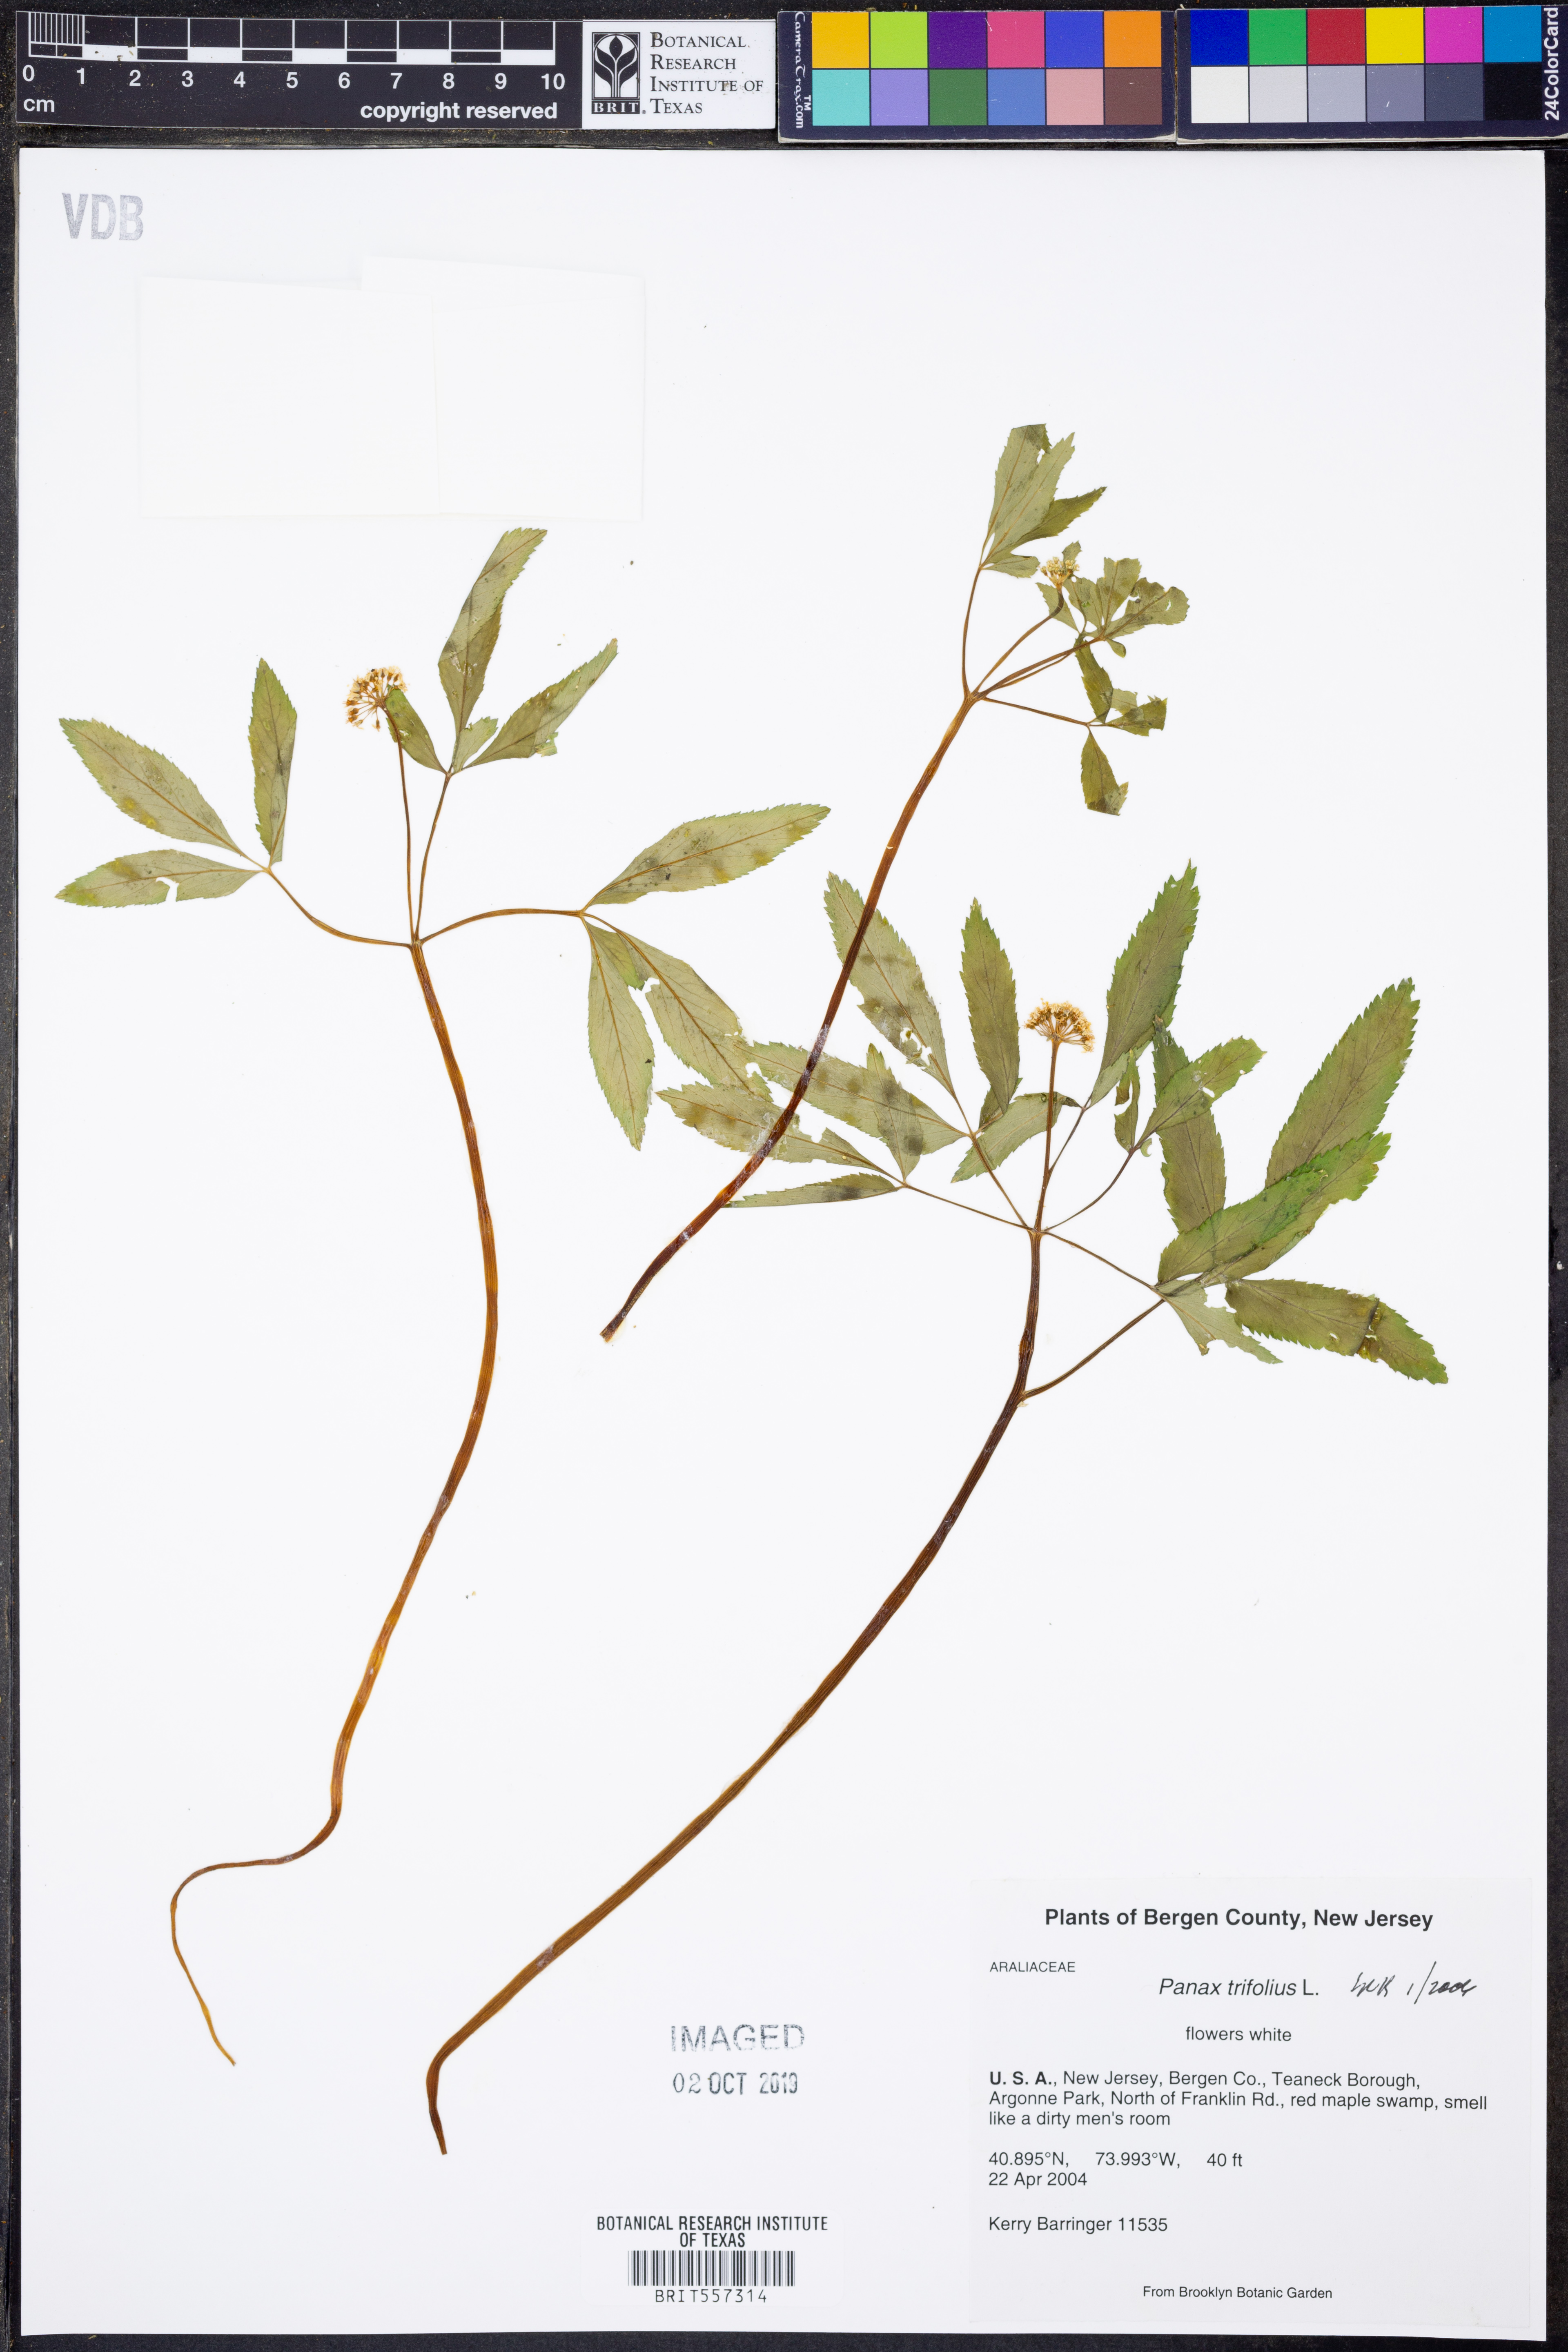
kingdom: Plantae
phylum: Tracheophyta
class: Magnoliopsida
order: Apiales
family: Araliaceae
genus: Panax
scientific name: Panax trifolius
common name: Dwarf ginseng
